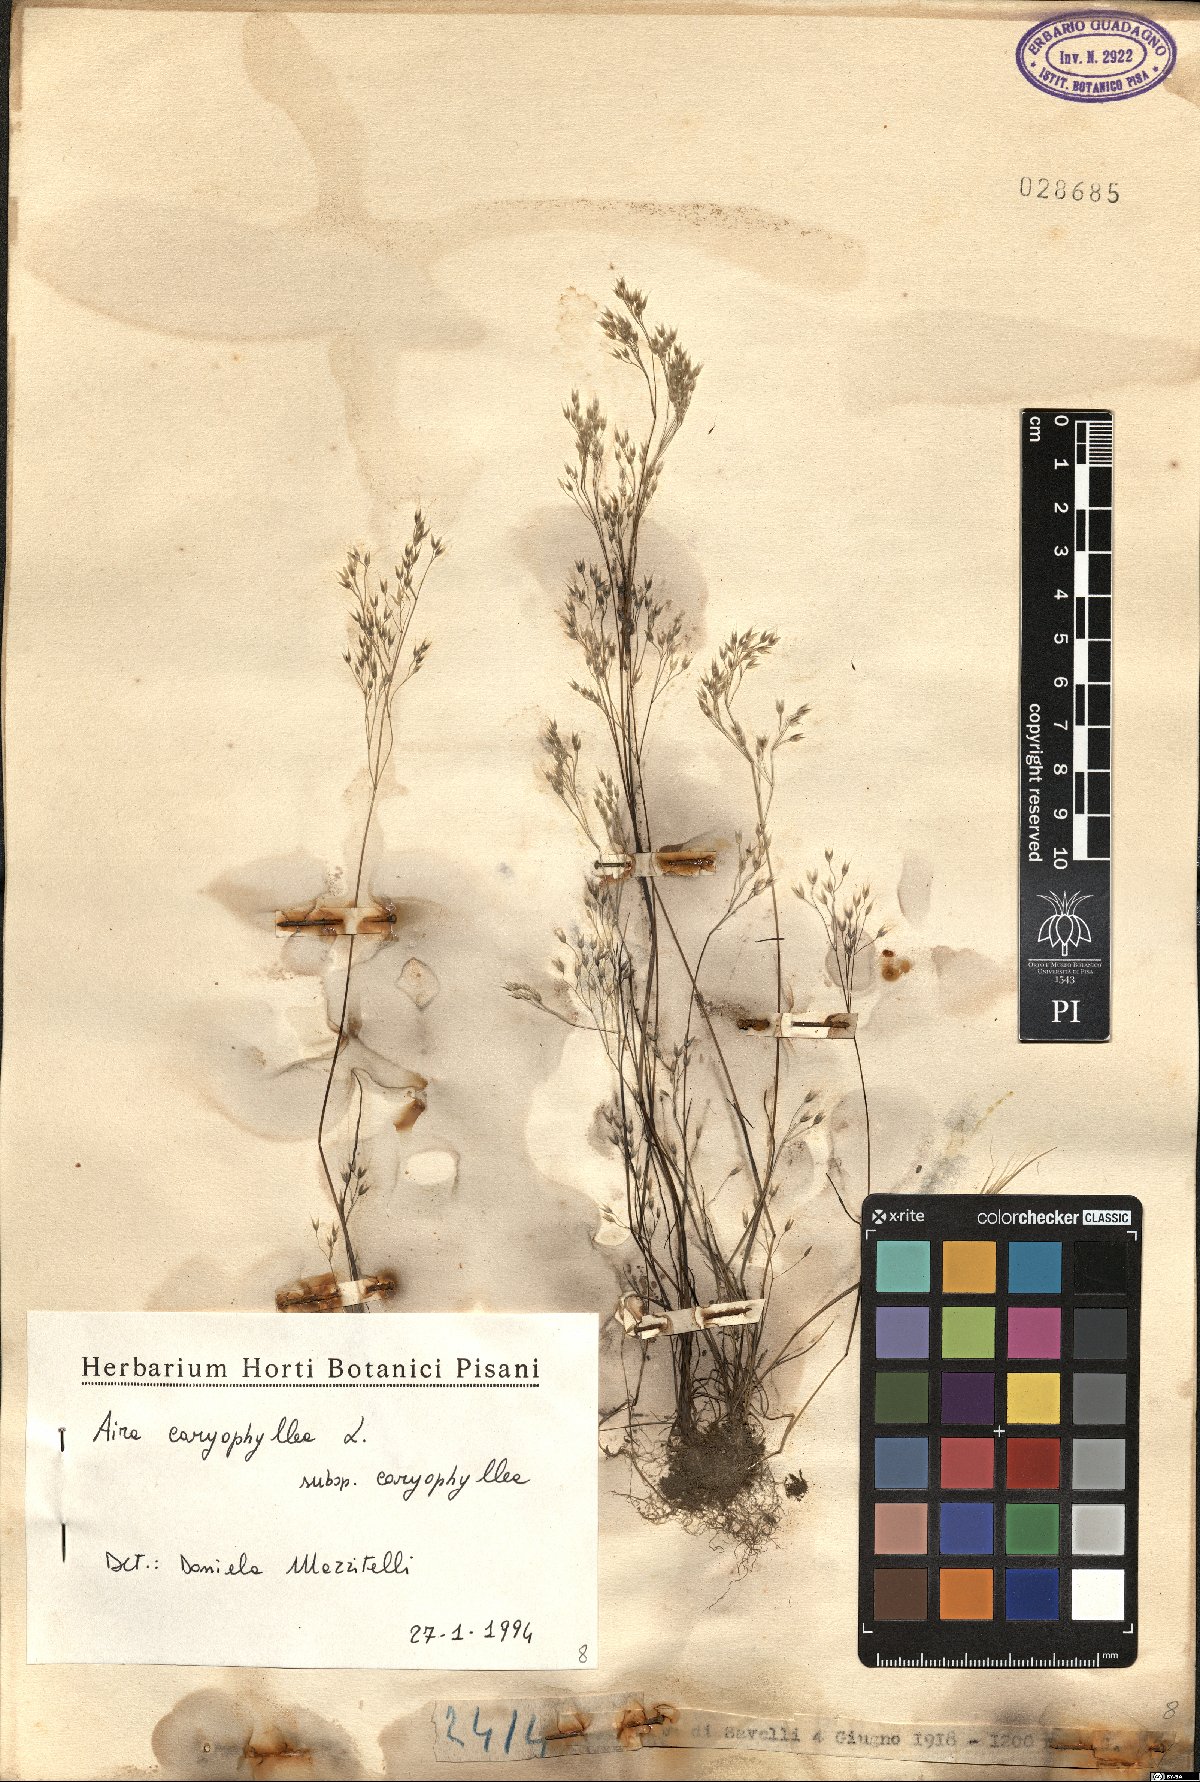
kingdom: Plantae
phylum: Tracheophyta
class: Liliopsida
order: Poales
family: Poaceae
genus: Aira
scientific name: Aira caryophyllea
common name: Silver hairgrass
